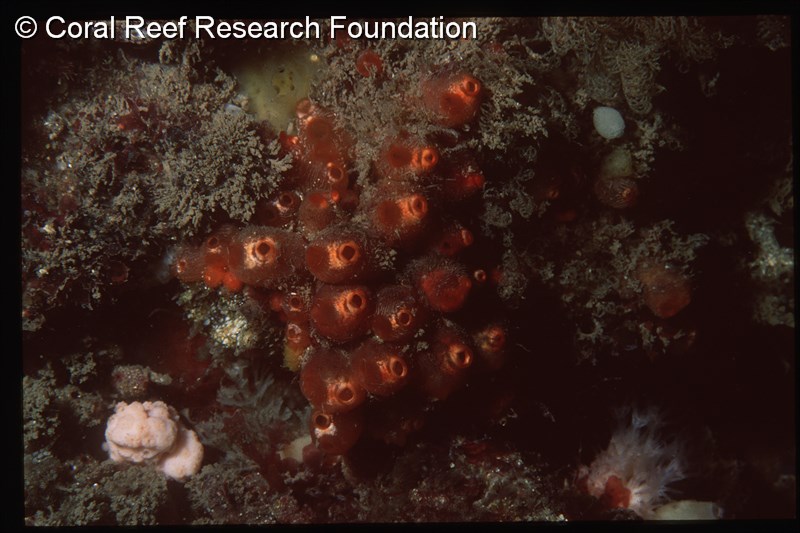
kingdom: Animalia
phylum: Chordata
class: Ascidiacea
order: Stolidobranchia
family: Styelidae
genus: Polyandrocarpa
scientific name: Polyandrocarpa
